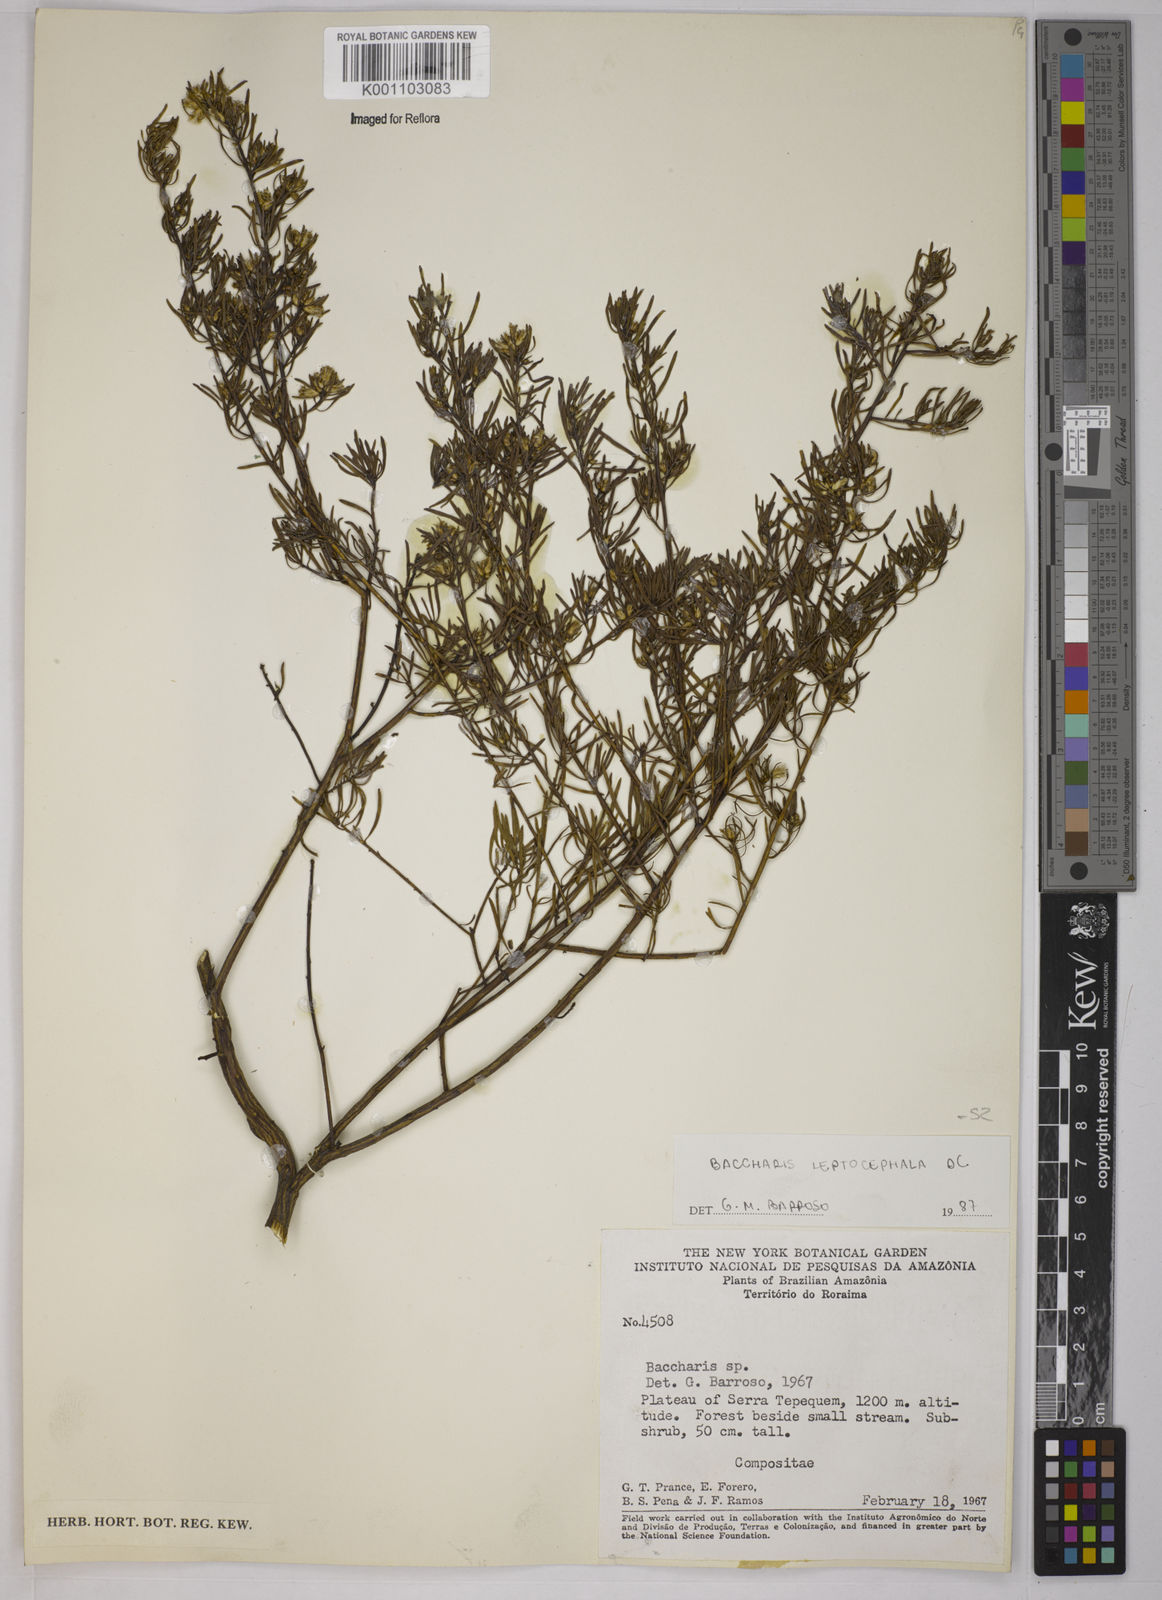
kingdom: Plantae
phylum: Tracheophyta
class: Magnoliopsida
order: Asterales
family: Asteraceae
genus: Baccharis
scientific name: Baccharis rufescens
